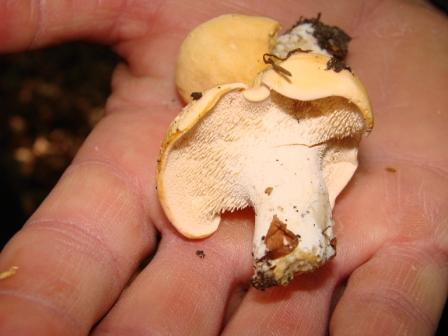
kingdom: Fungi
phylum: Basidiomycota
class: Agaricomycetes
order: Cantharellales
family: Hydnaceae
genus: Hydnum
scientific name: Hydnum repandum
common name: almindelig pigsvamp
